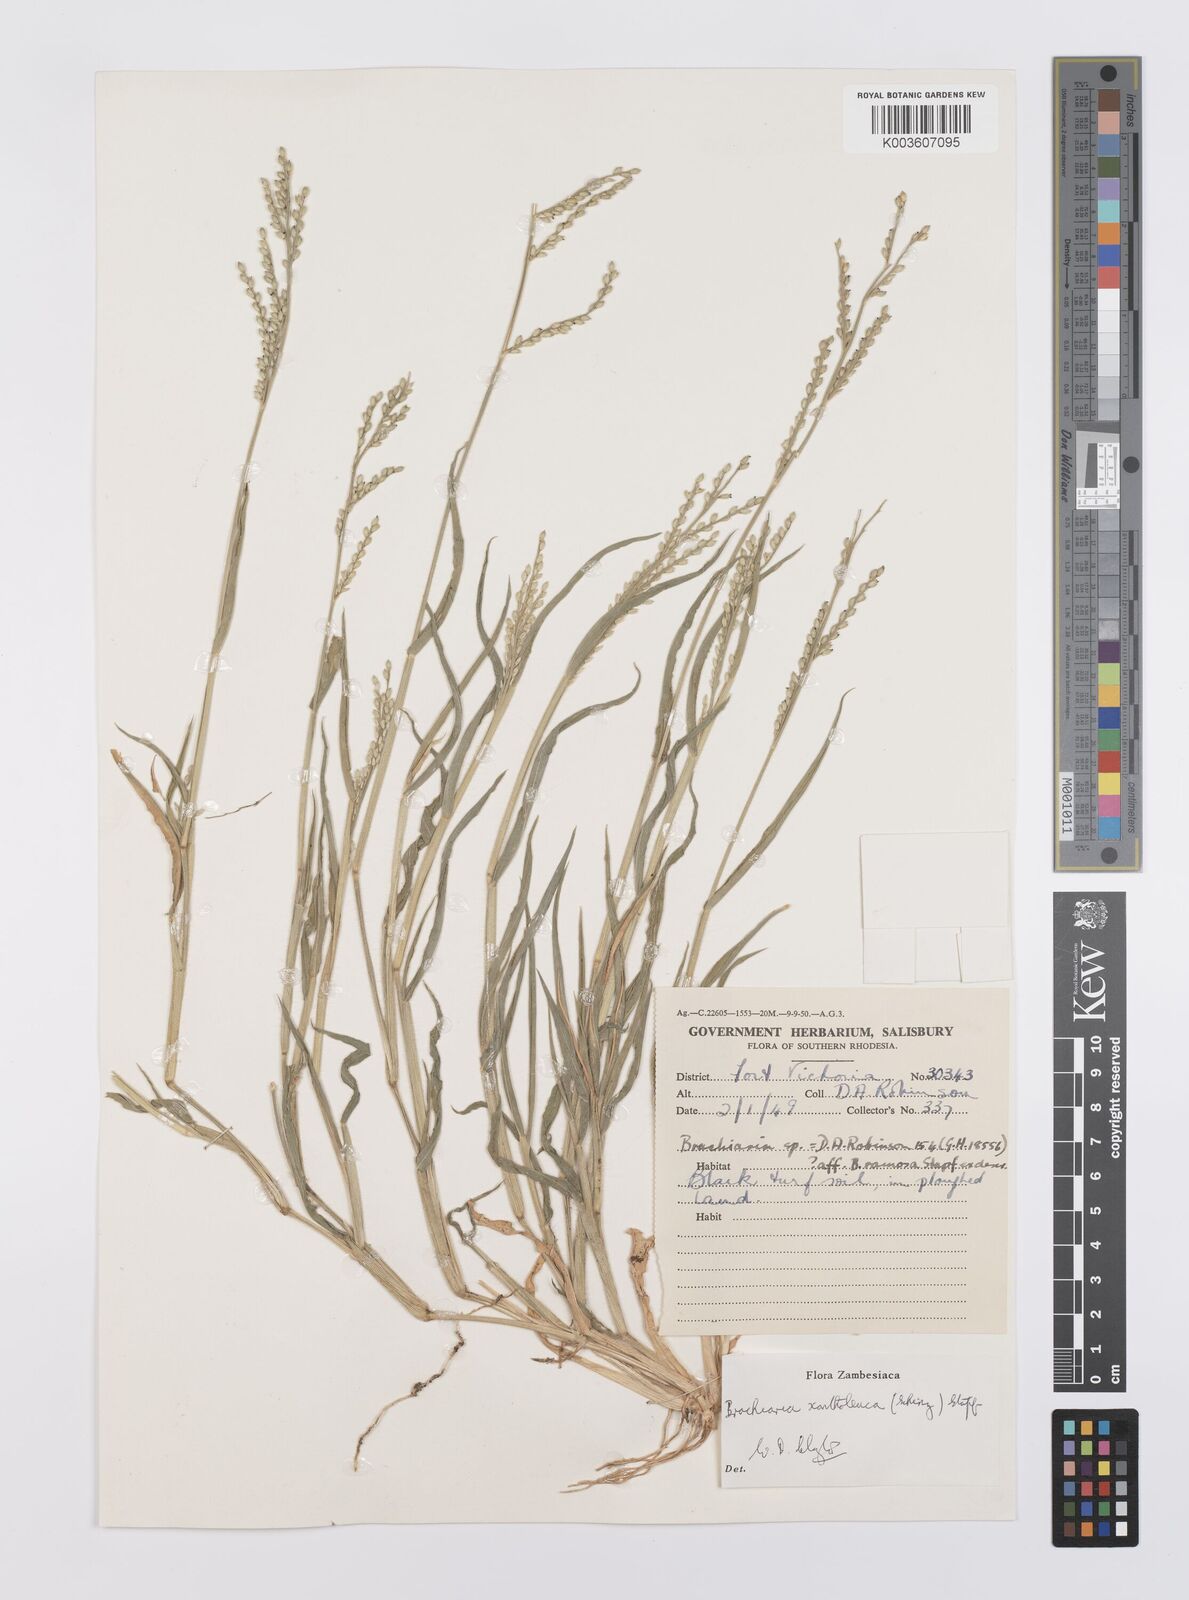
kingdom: Plantae
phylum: Tracheophyta
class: Liliopsida
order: Poales
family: Poaceae
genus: Urochloa
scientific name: Urochloa xantholeuca
